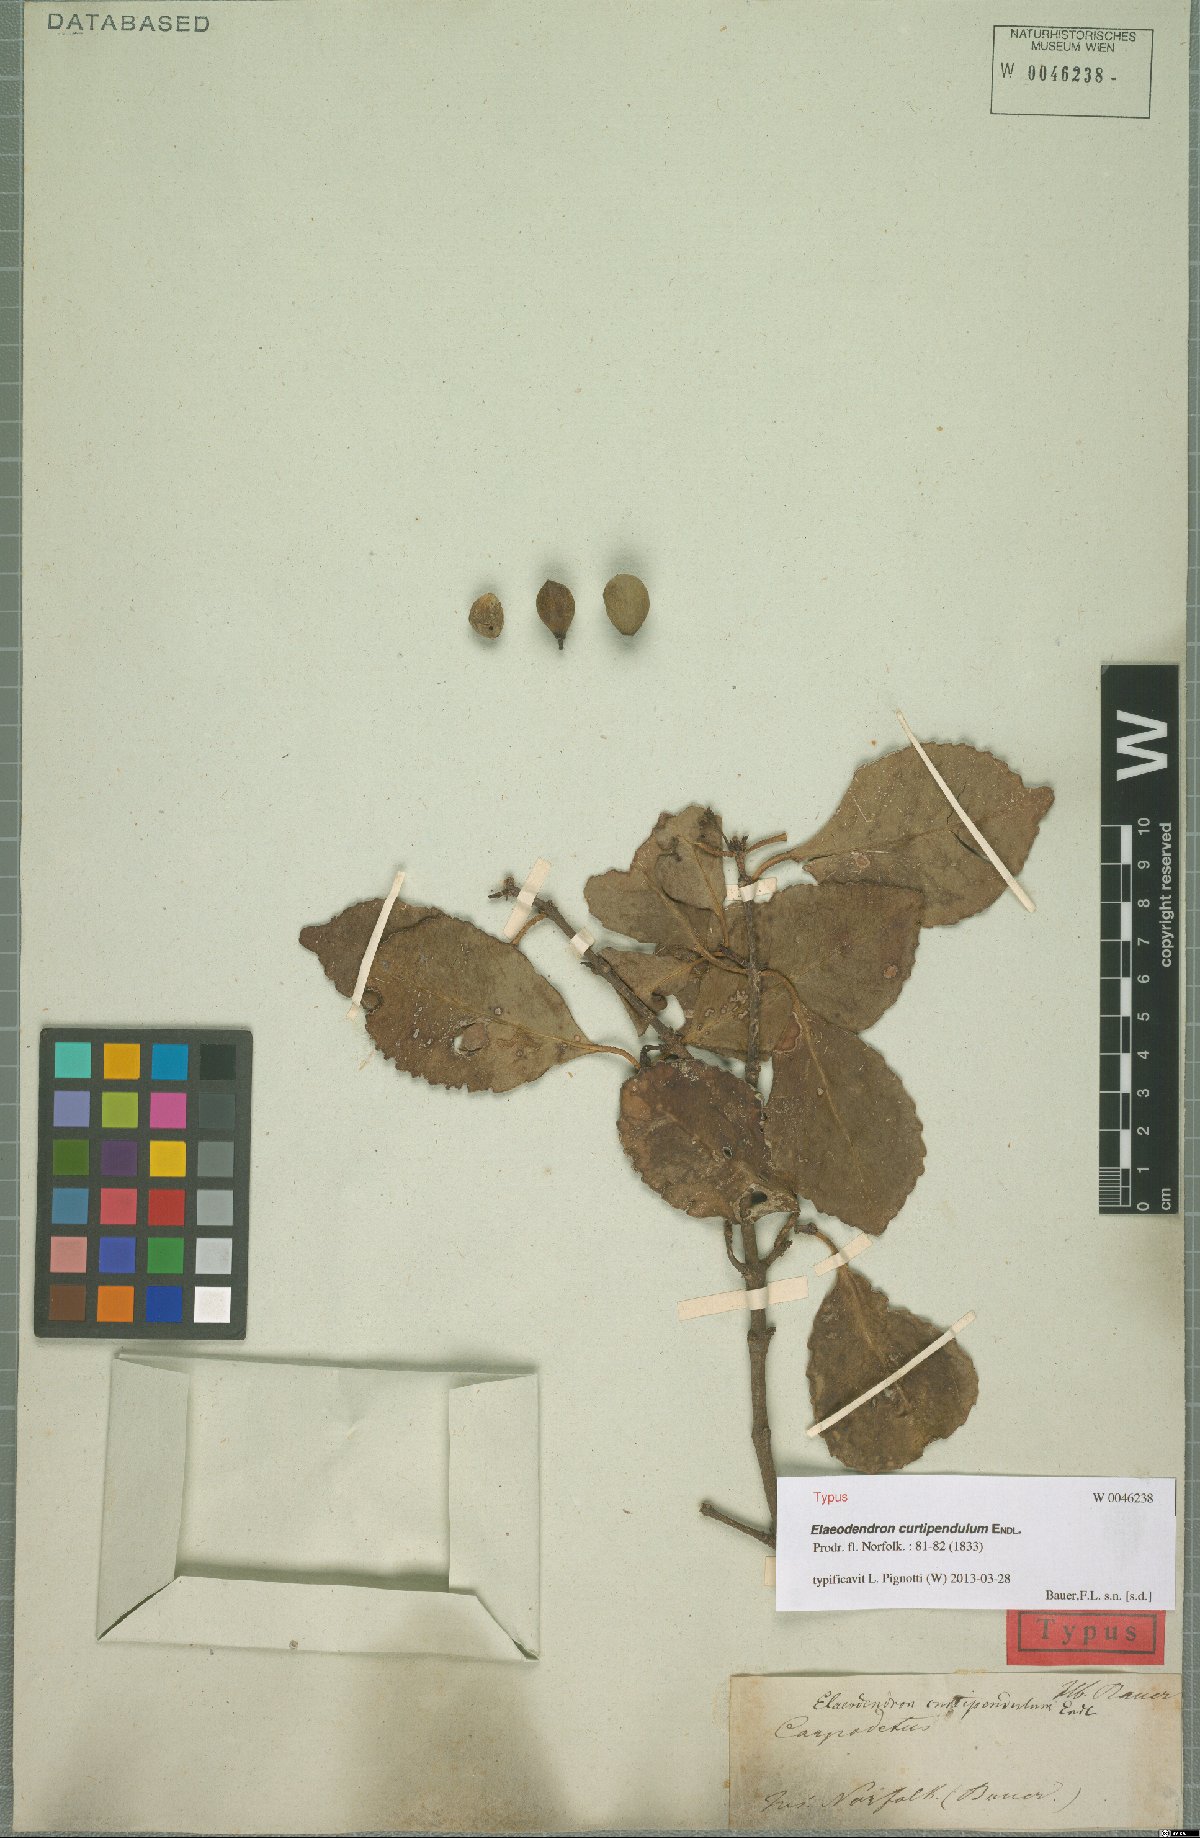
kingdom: Plantae
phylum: Tracheophyta
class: Magnoliopsida
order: Celastrales
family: Celastraceae
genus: Elaeodendron
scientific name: Elaeodendron curtipendulum
